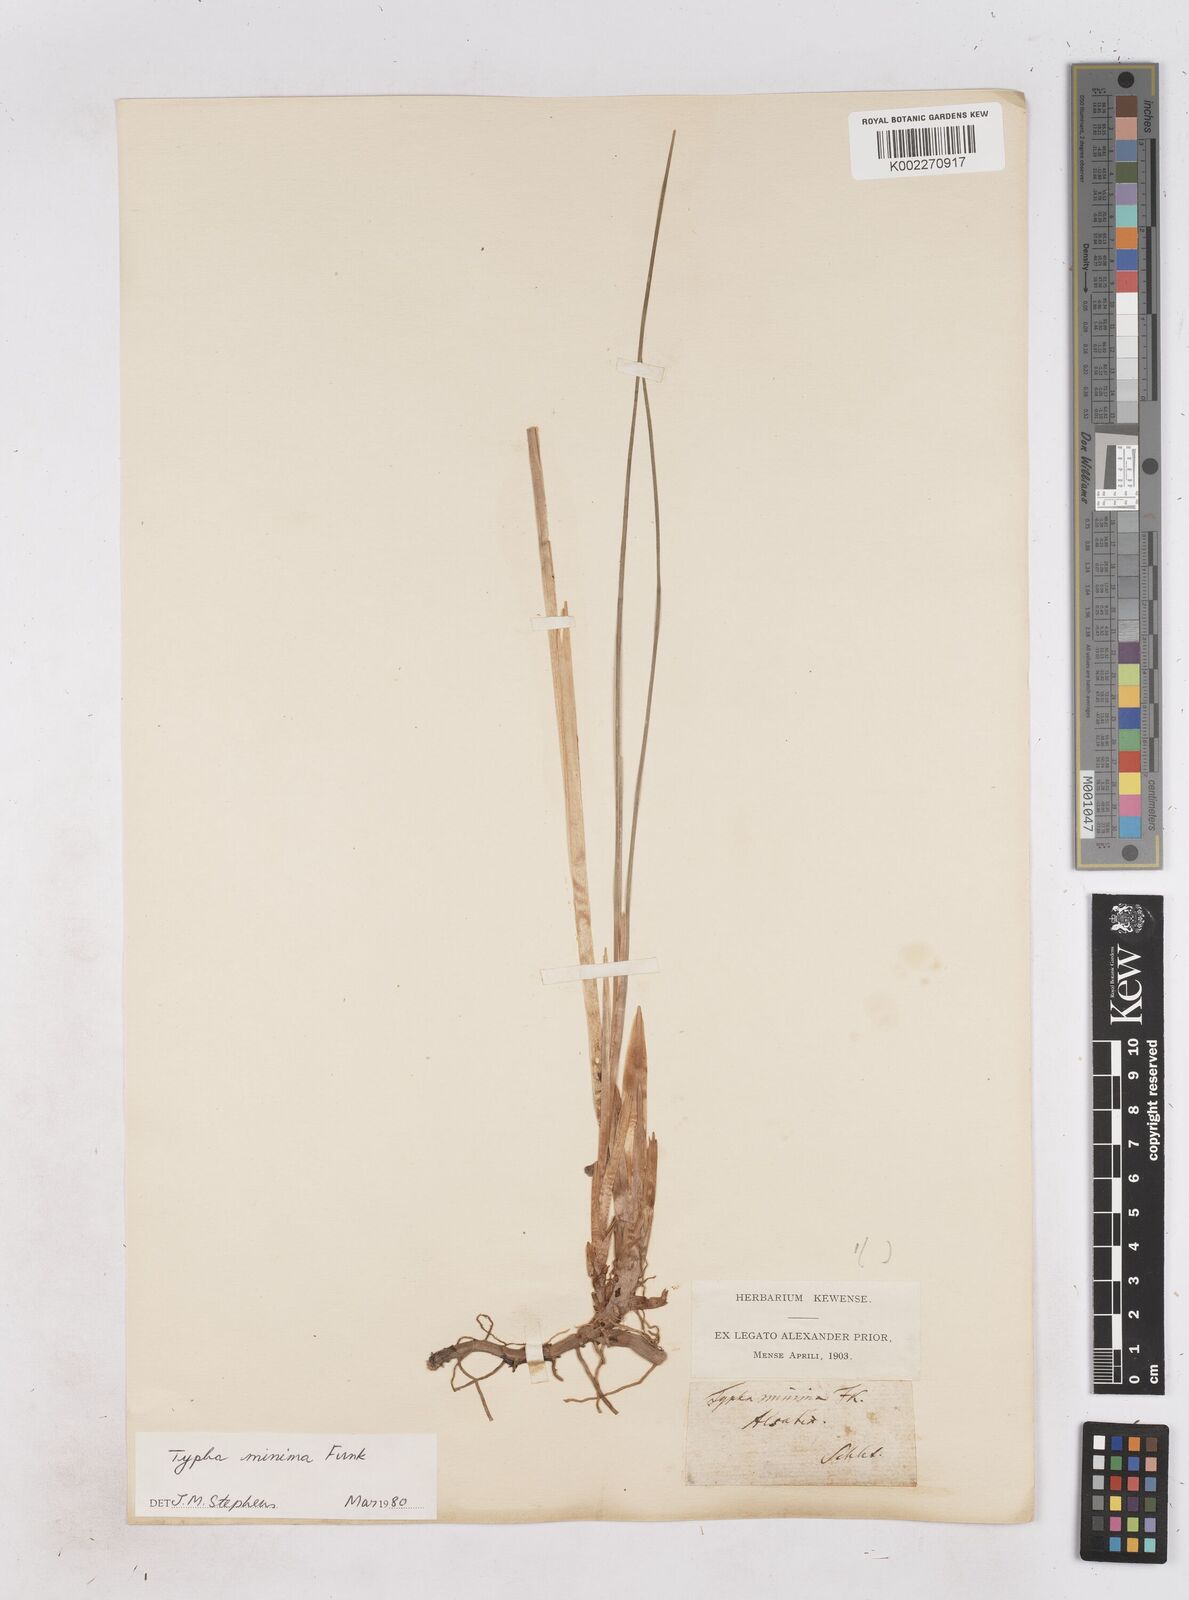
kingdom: Plantae
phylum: Tracheophyta
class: Liliopsida
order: Poales
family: Typhaceae
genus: Typha
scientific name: Typha
